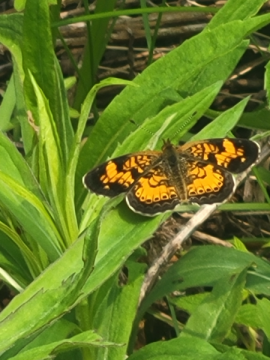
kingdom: Animalia
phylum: Arthropoda
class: Insecta
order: Lepidoptera
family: Nymphalidae
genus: Phyciodes
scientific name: Phyciodes tharos
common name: Pearl Crescent
